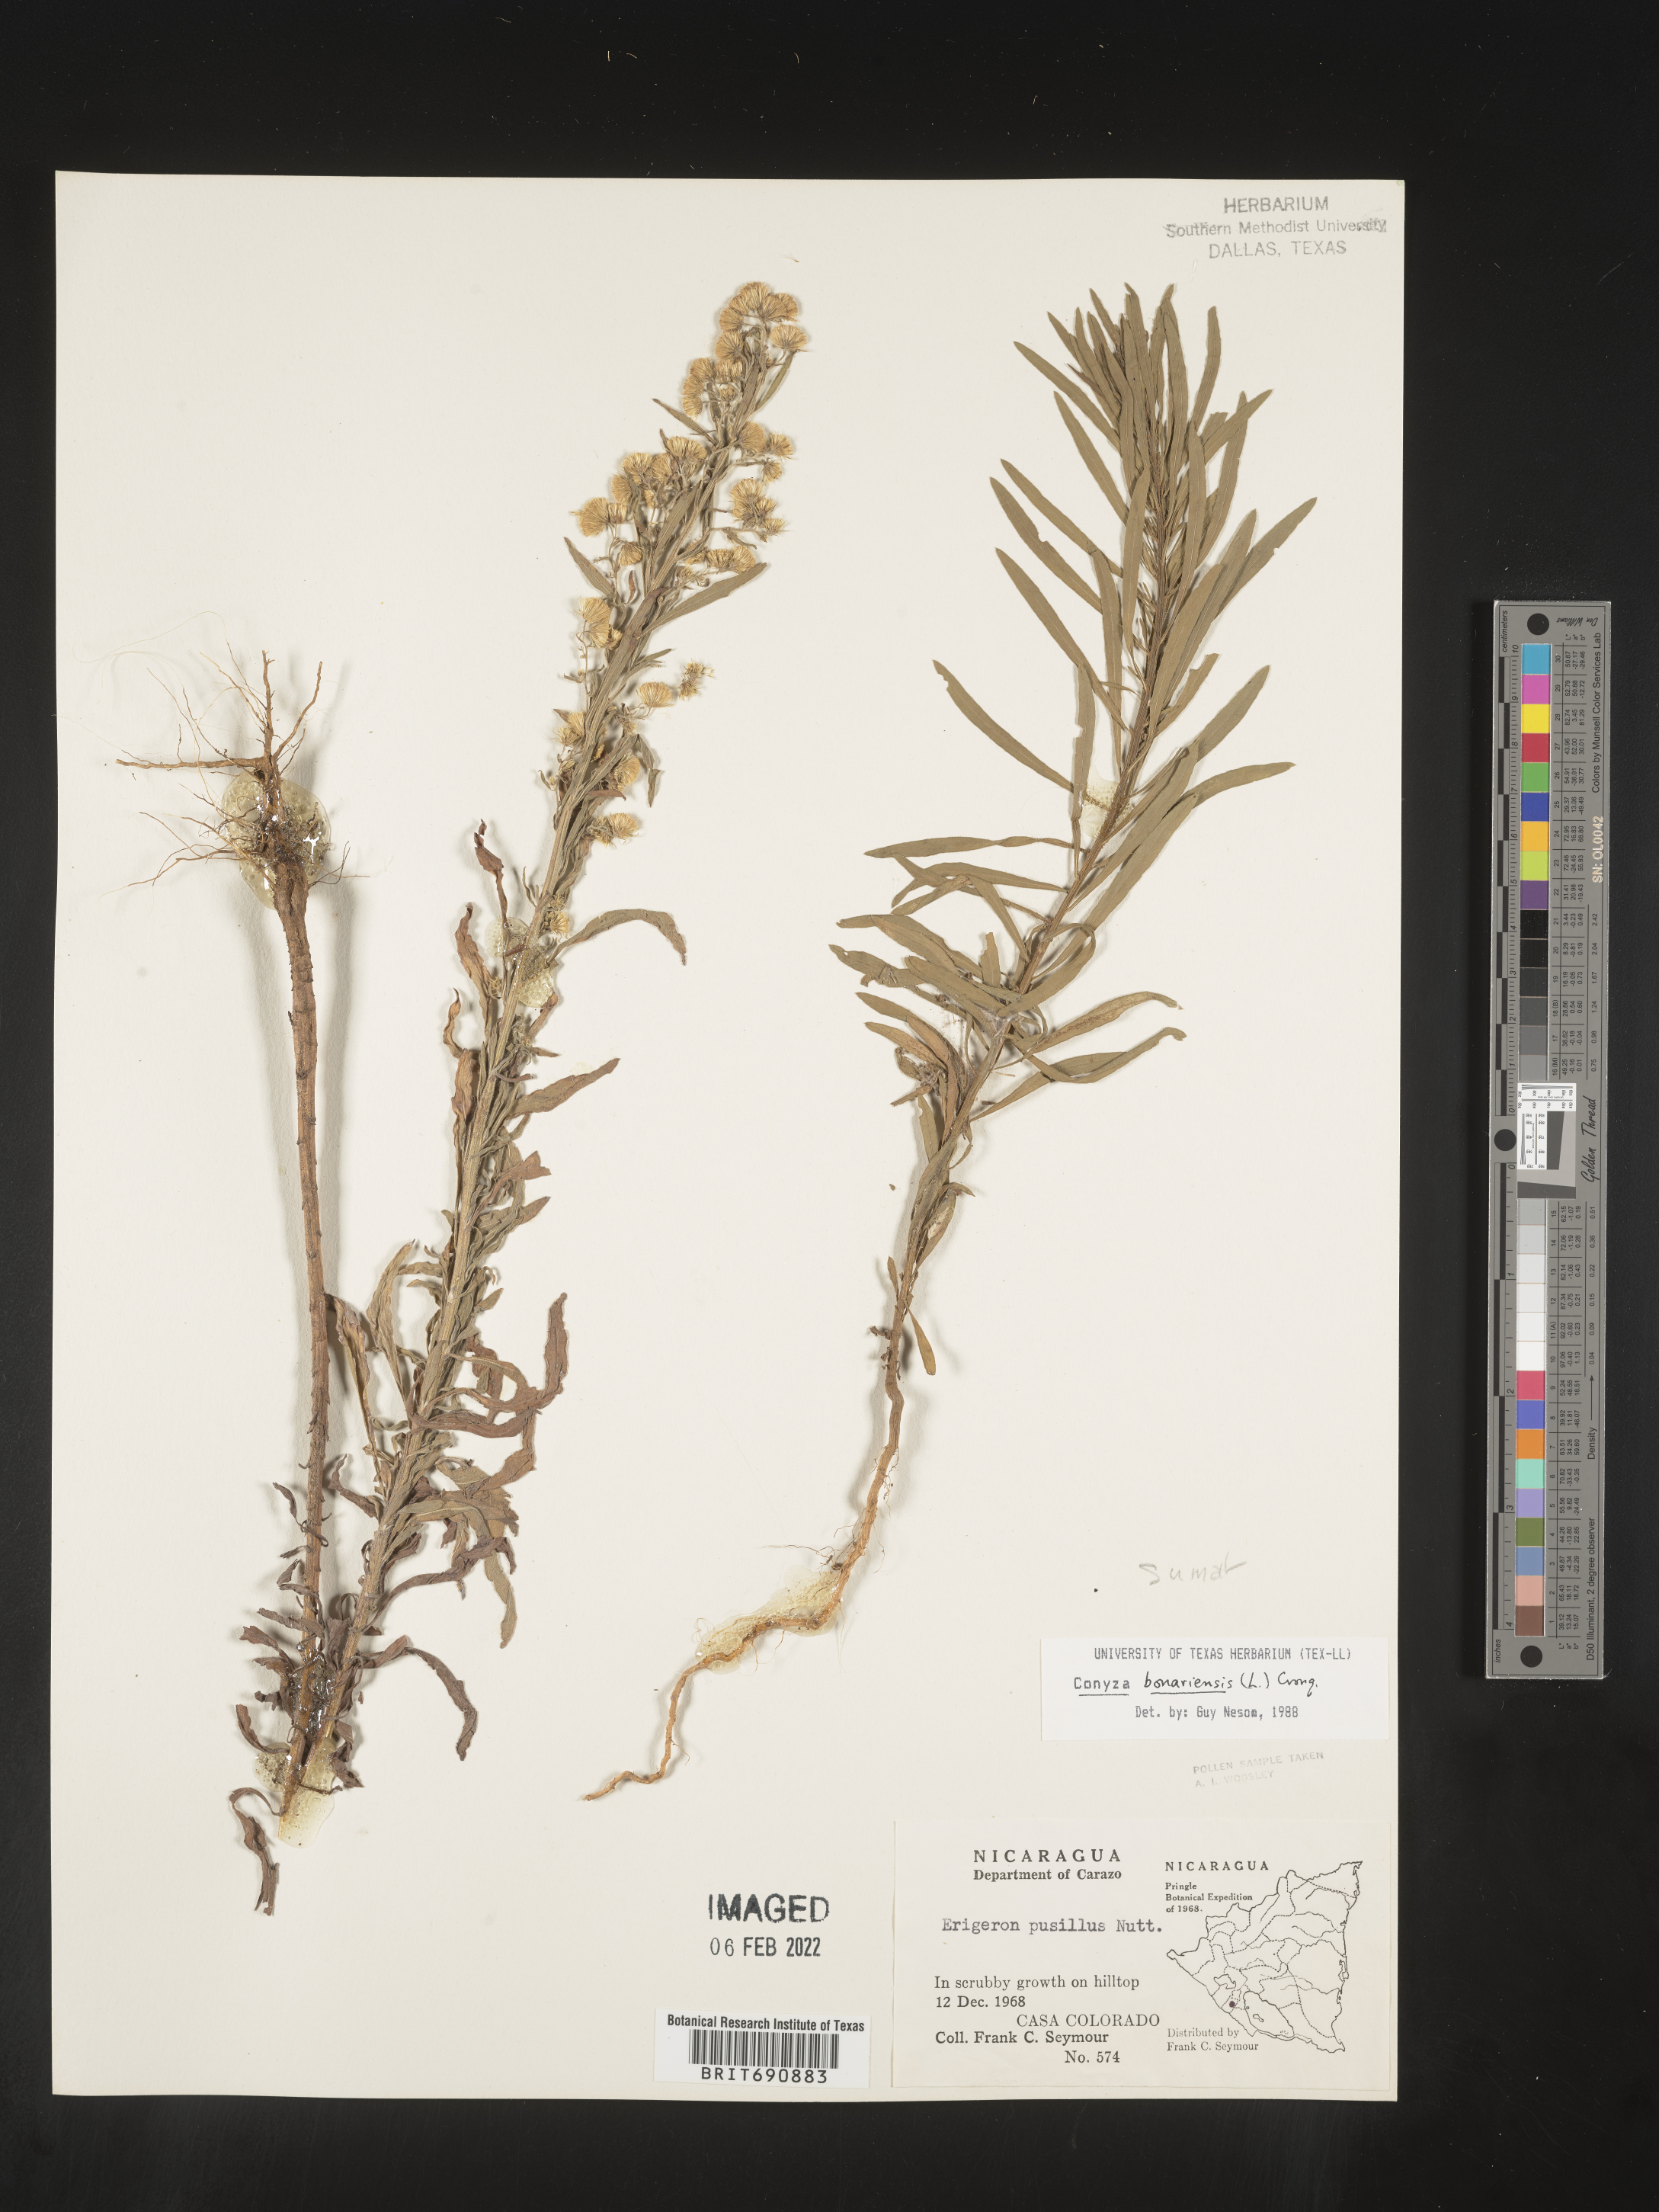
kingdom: Plantae
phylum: Tracheophyta
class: Magnoliopsida
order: Asterales
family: Asteraceae
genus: Erigeron
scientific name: Erigeron sumatrensis
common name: Daisy
